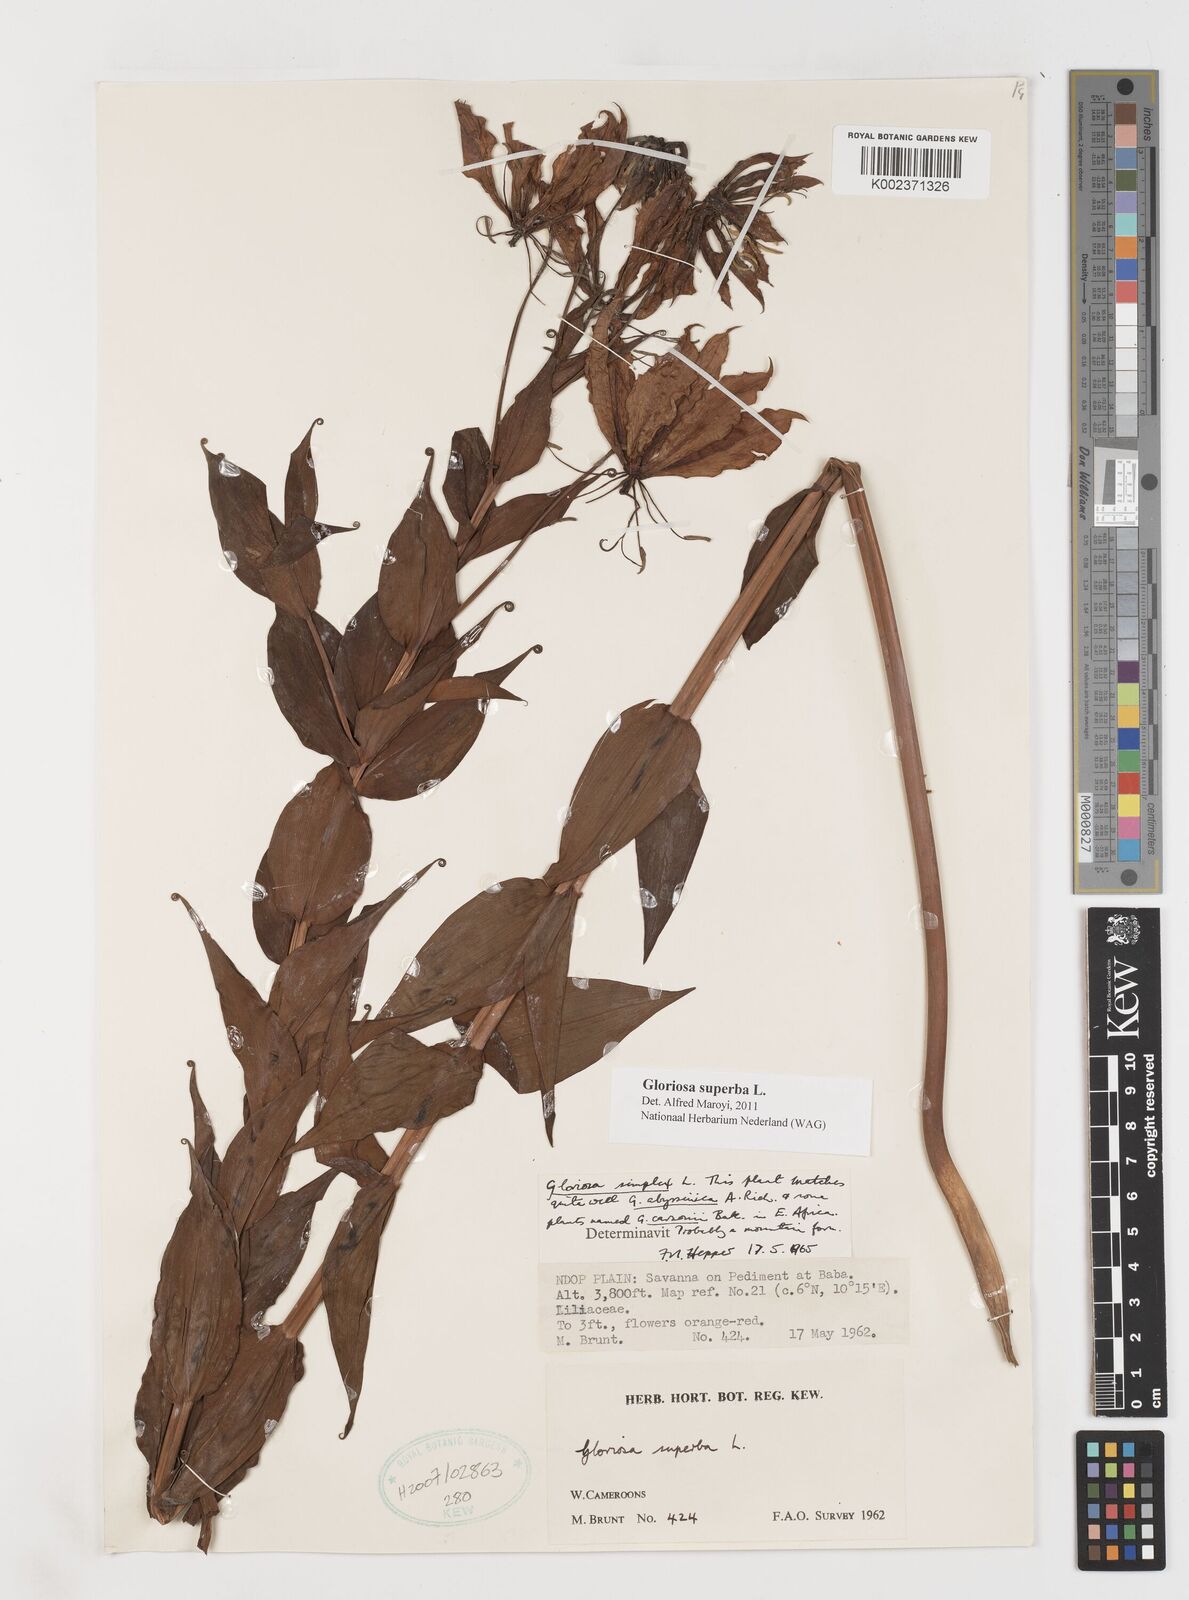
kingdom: Plantae
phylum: Tracheophyta
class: Liliopsida
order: Liliales
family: Colchicaceae
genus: Gloriosa
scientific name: Gloriosa superba
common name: Flame lily
